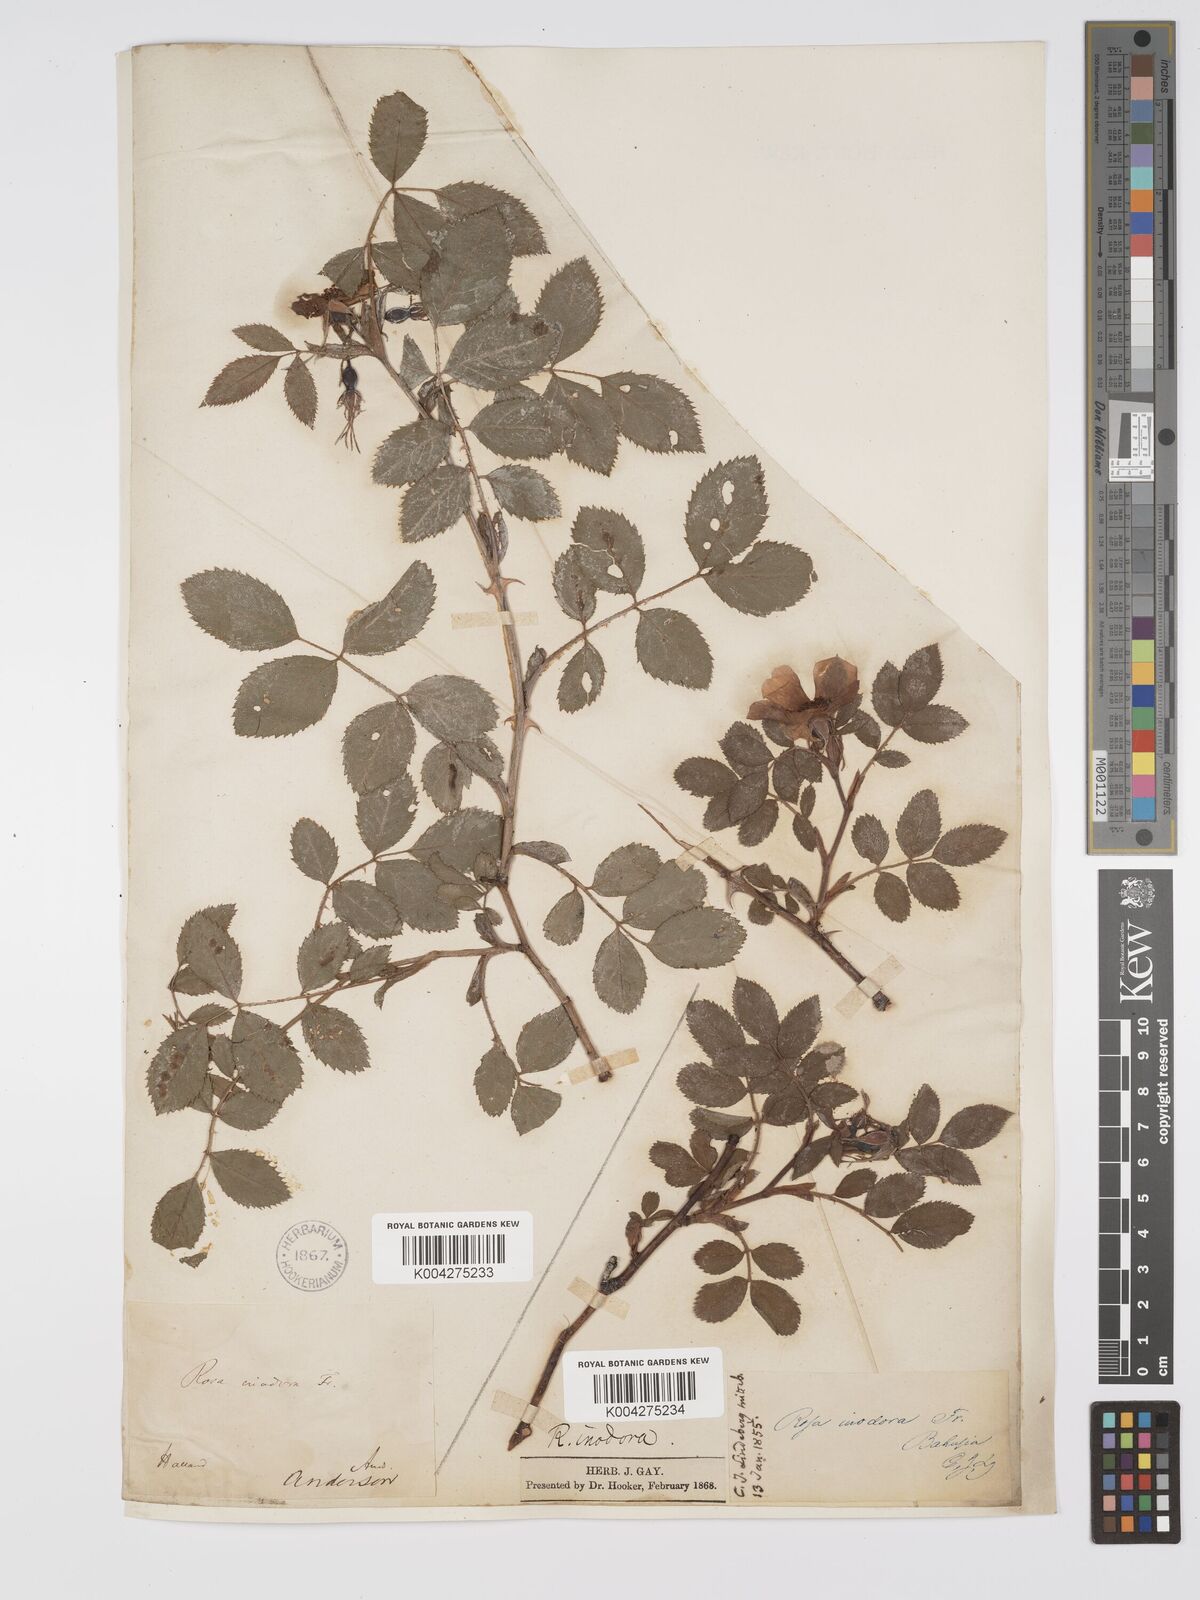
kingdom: Plantae
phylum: Tracheophyta
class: Magnoliopsida
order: Rosales
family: Rosaceae
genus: Rosa
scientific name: Rosa
